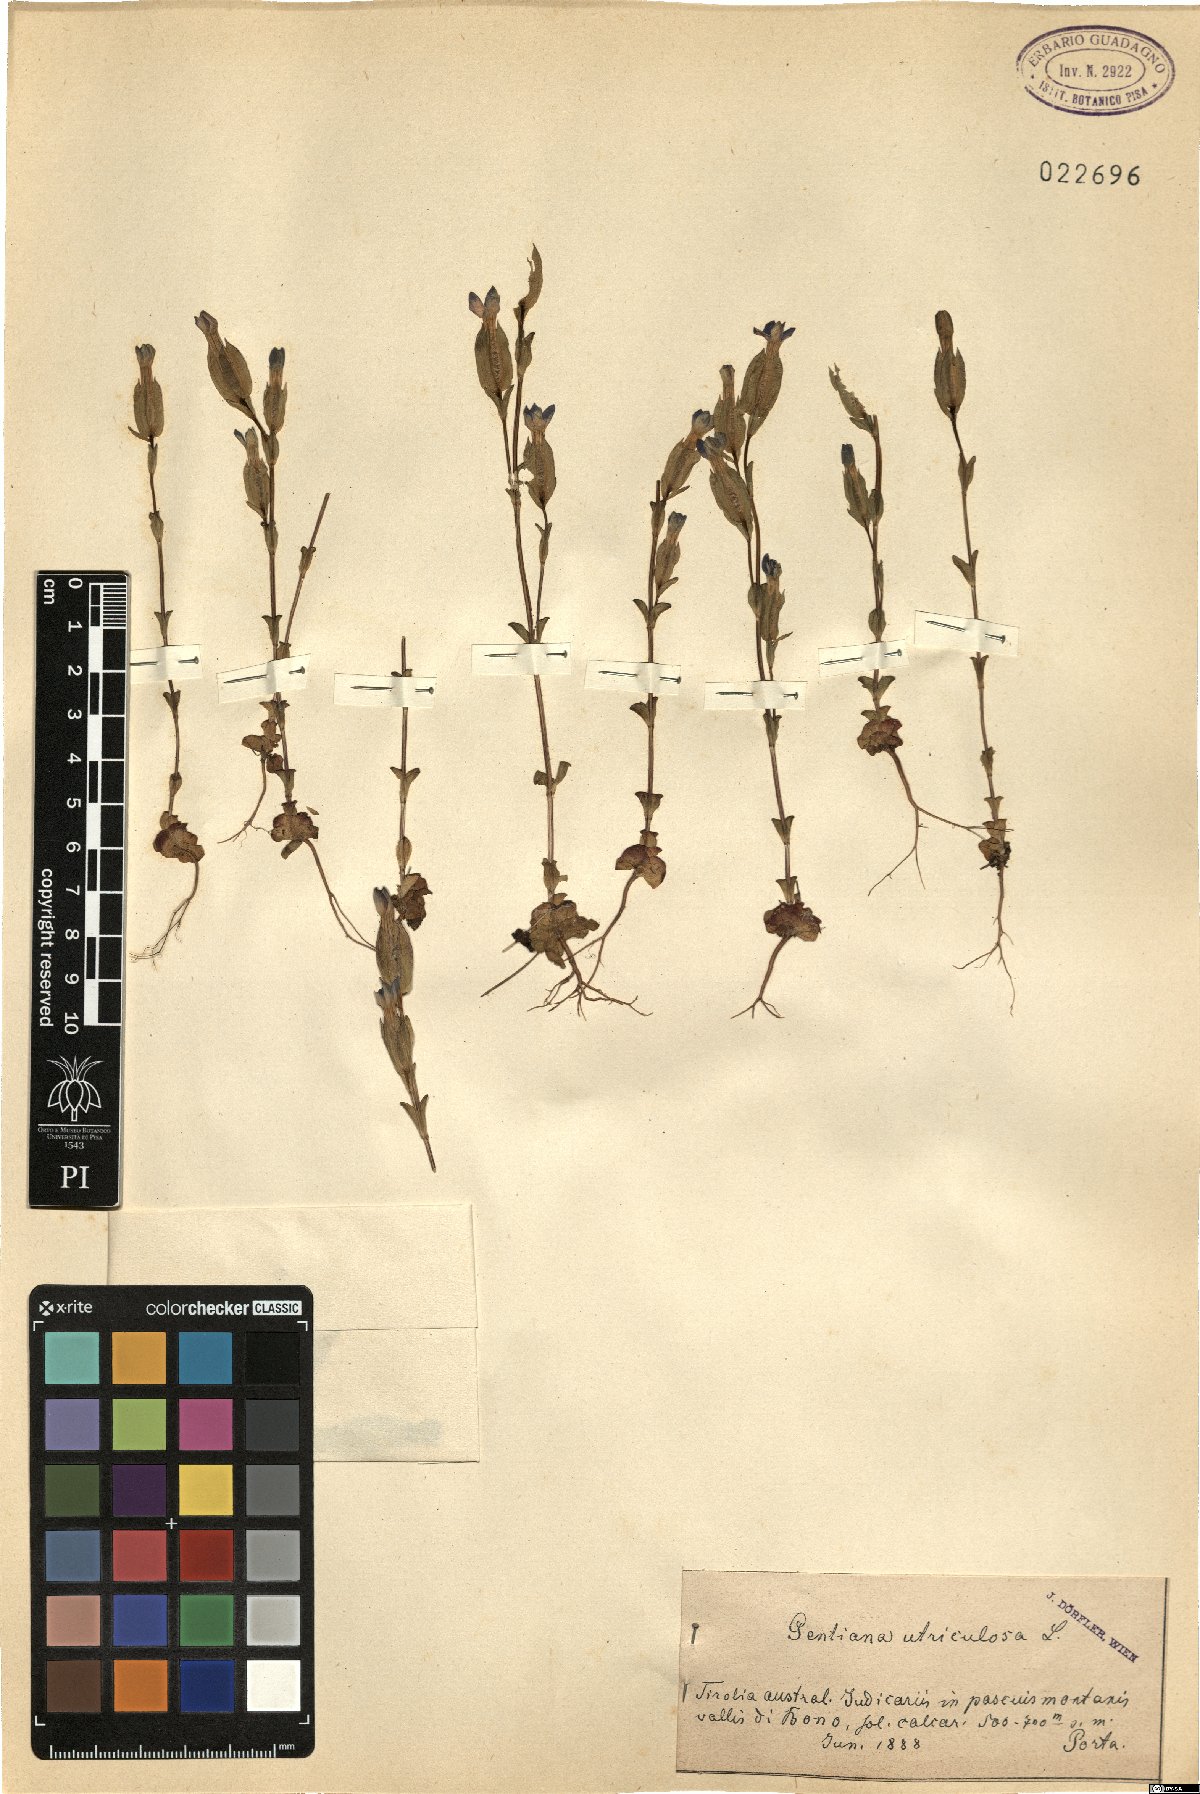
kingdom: Plantae
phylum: Tracheophyta
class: Magnoliopsida
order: Gentianales
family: Gentianaceae
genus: Gentiana
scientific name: Gentiana utriculosa
